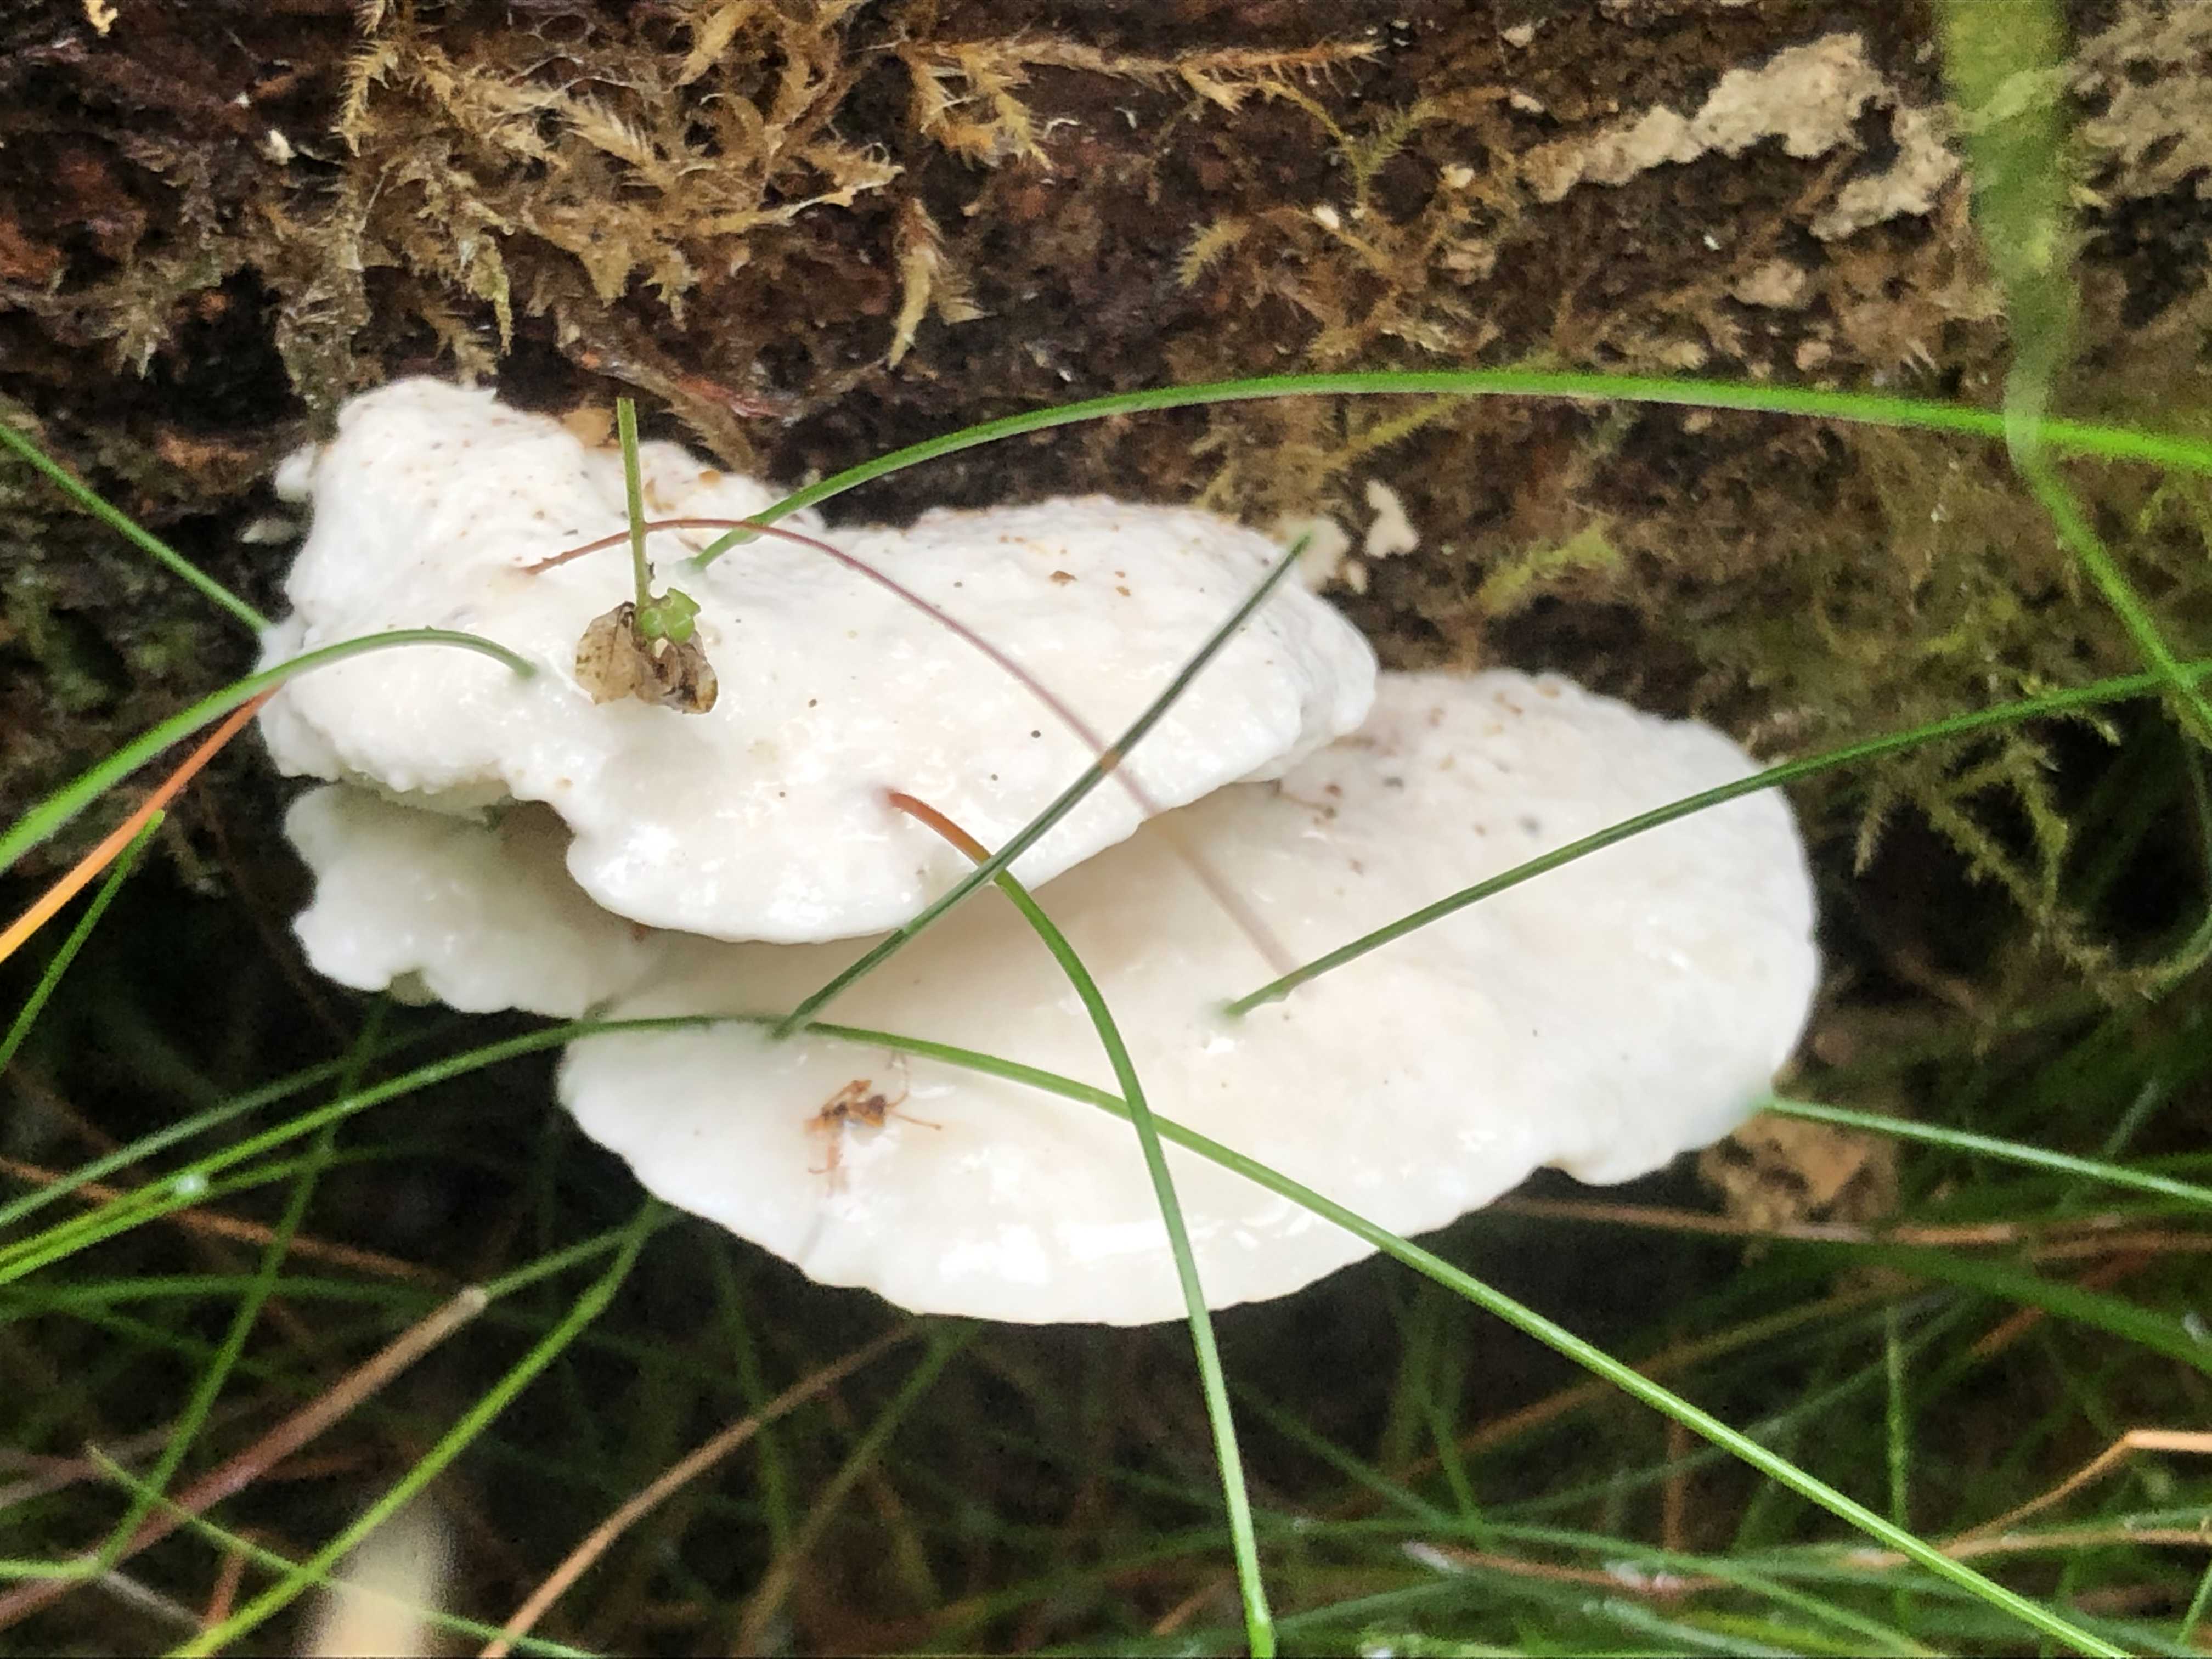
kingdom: Fungi
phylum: Basidiomycota
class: Agaricomycetes
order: Polyporales
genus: Amaropostia
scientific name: Amaropostia stiptica
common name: bitter kødporesvamp
